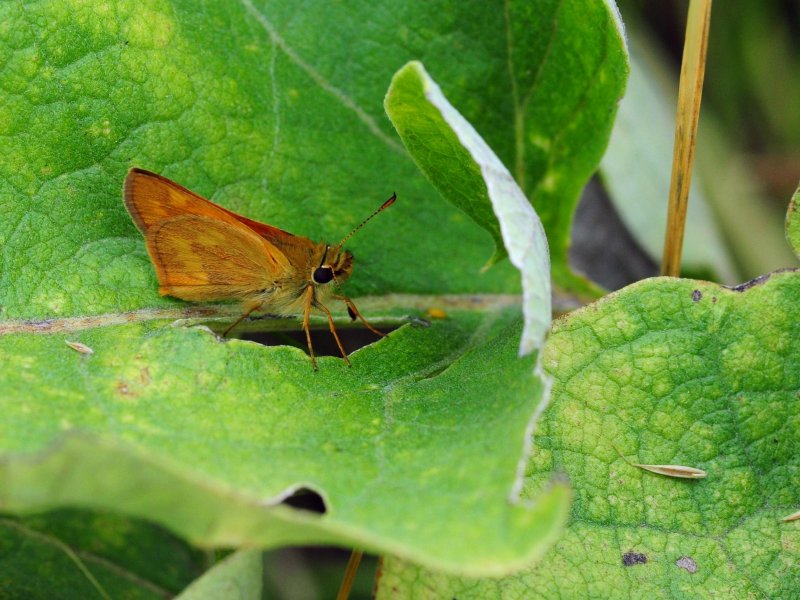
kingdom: Animalia
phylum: Arthropoda
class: Insecta
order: Lepidoptera
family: Hesperiidae
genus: Ochlodes
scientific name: Ochlodes sylvanoides
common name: Woodland Skipper
